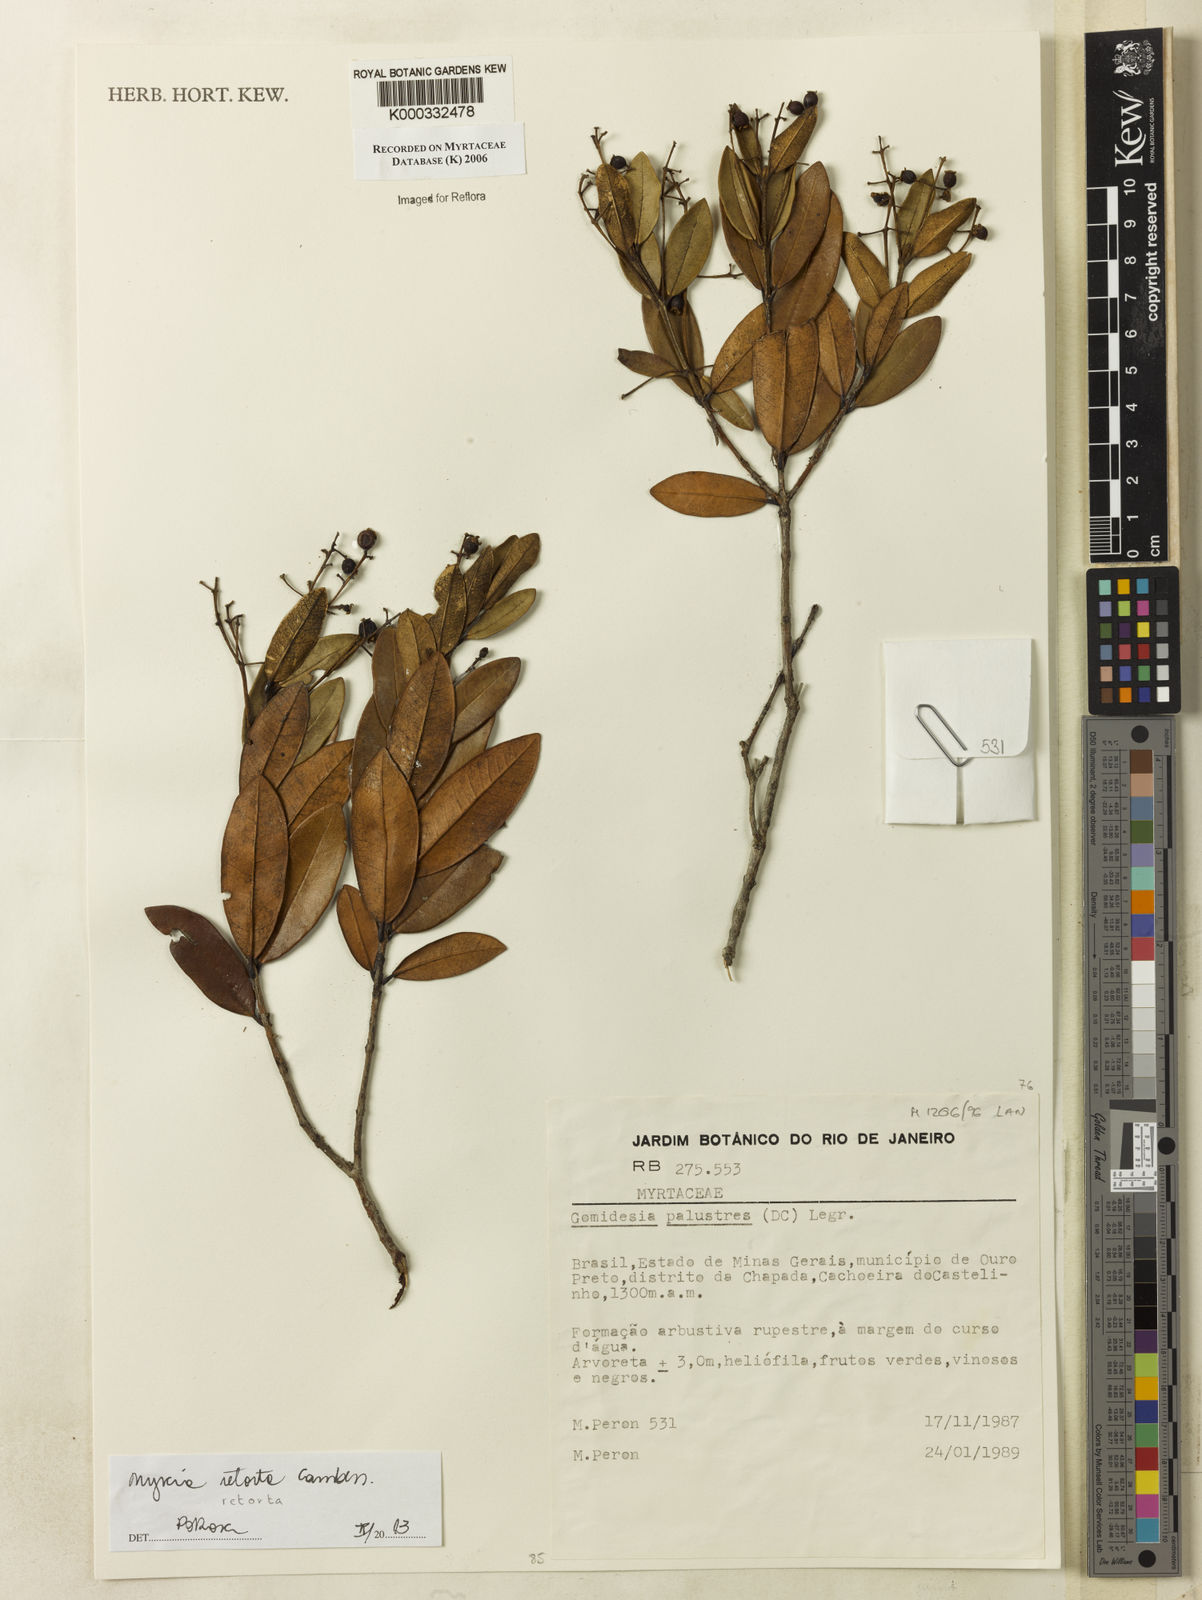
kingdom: Plantae
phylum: Tracheophyta
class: Magnoliopsida
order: Myrtales
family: Myrtaceae
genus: Myrcia
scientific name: Myrcia retorta
